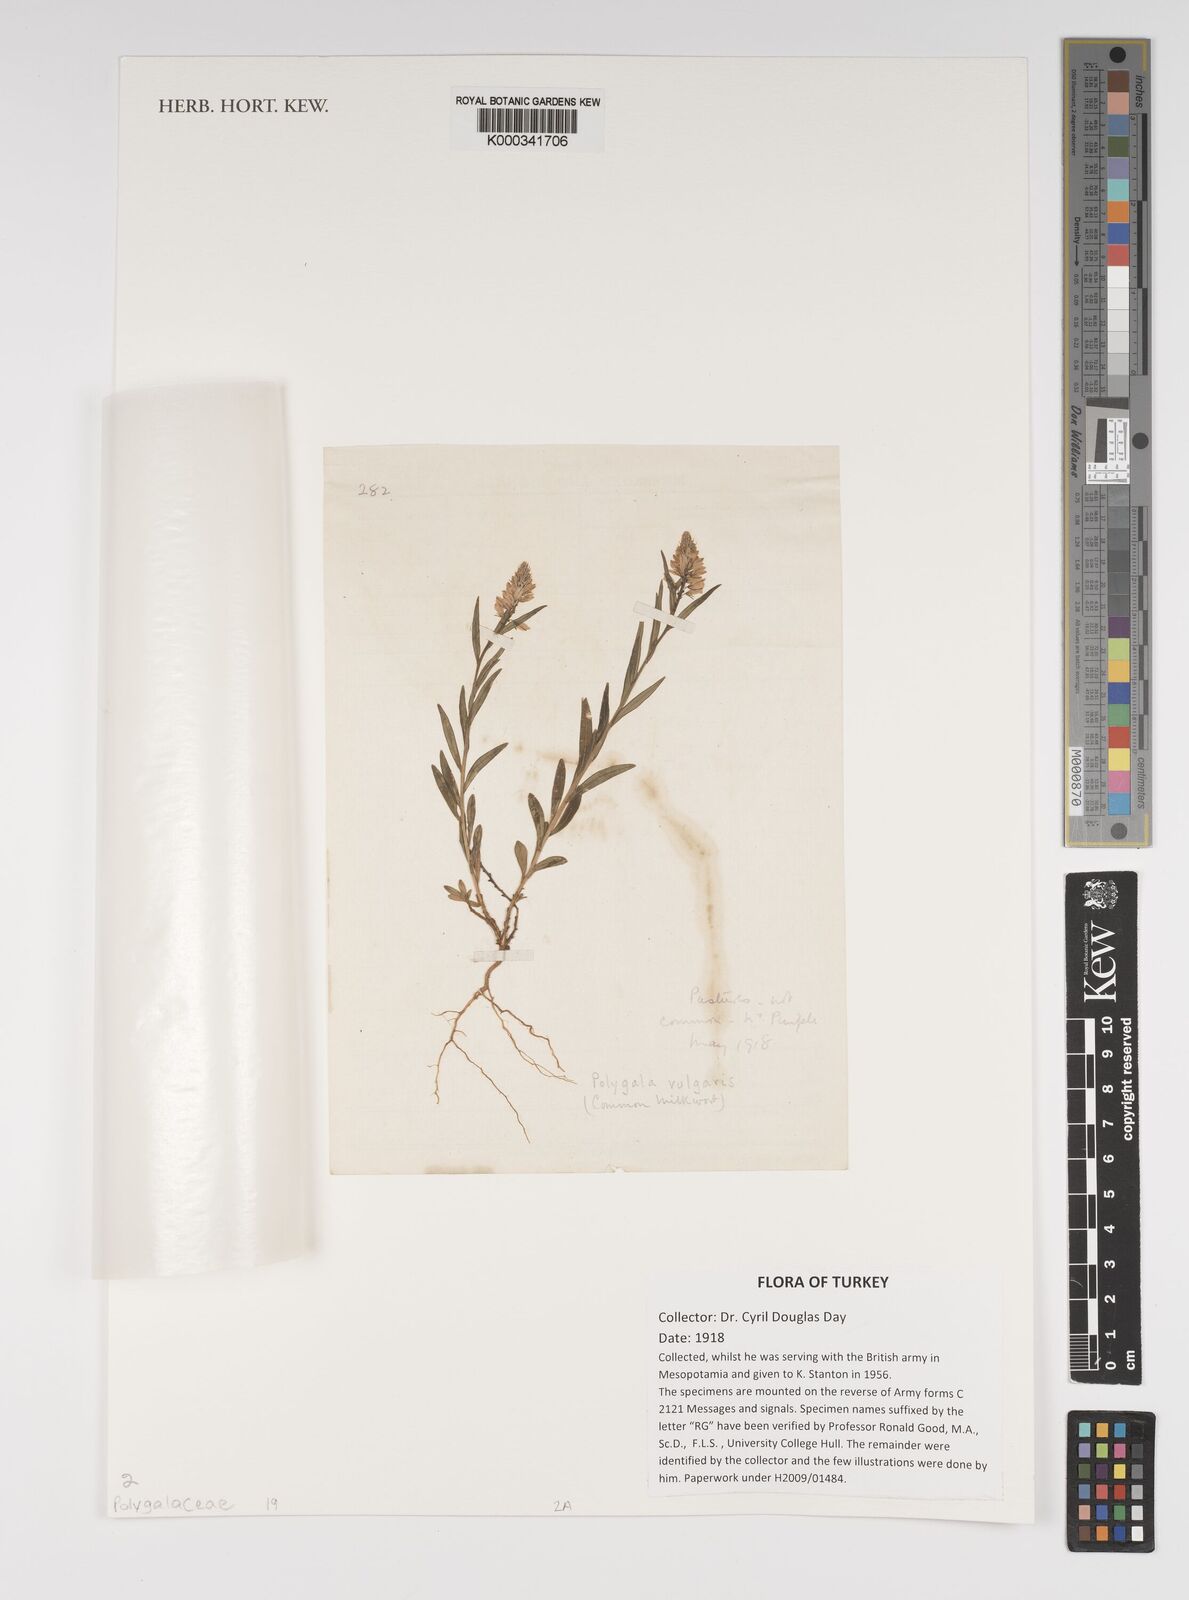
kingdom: Plantae
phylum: Tracheophyta
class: Magnoliopsida
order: Fabales
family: Polygalaceae
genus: Polygala
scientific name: Polygala vulgaris
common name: Common milkwort
